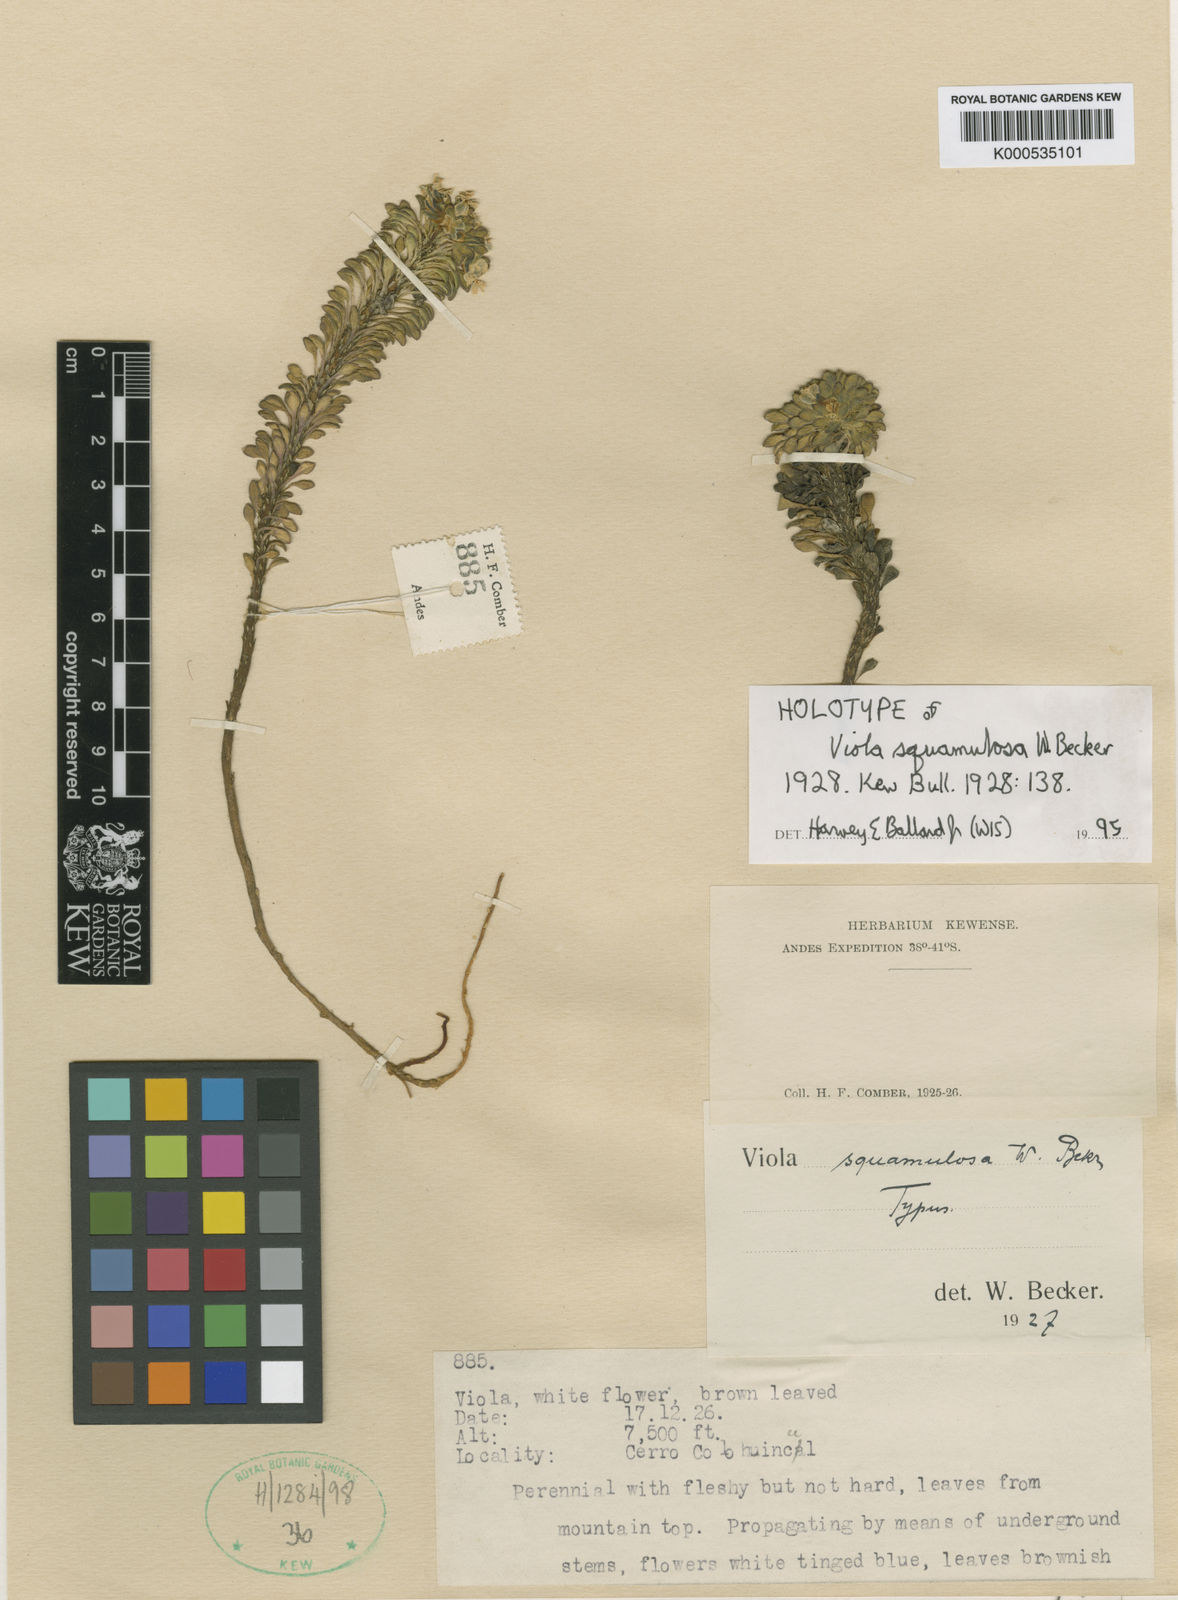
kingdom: Plantae
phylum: Tracheophyta
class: Magnoliopsida
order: Malpighiales
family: Violaceae
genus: Viola
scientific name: Viola sacculus
